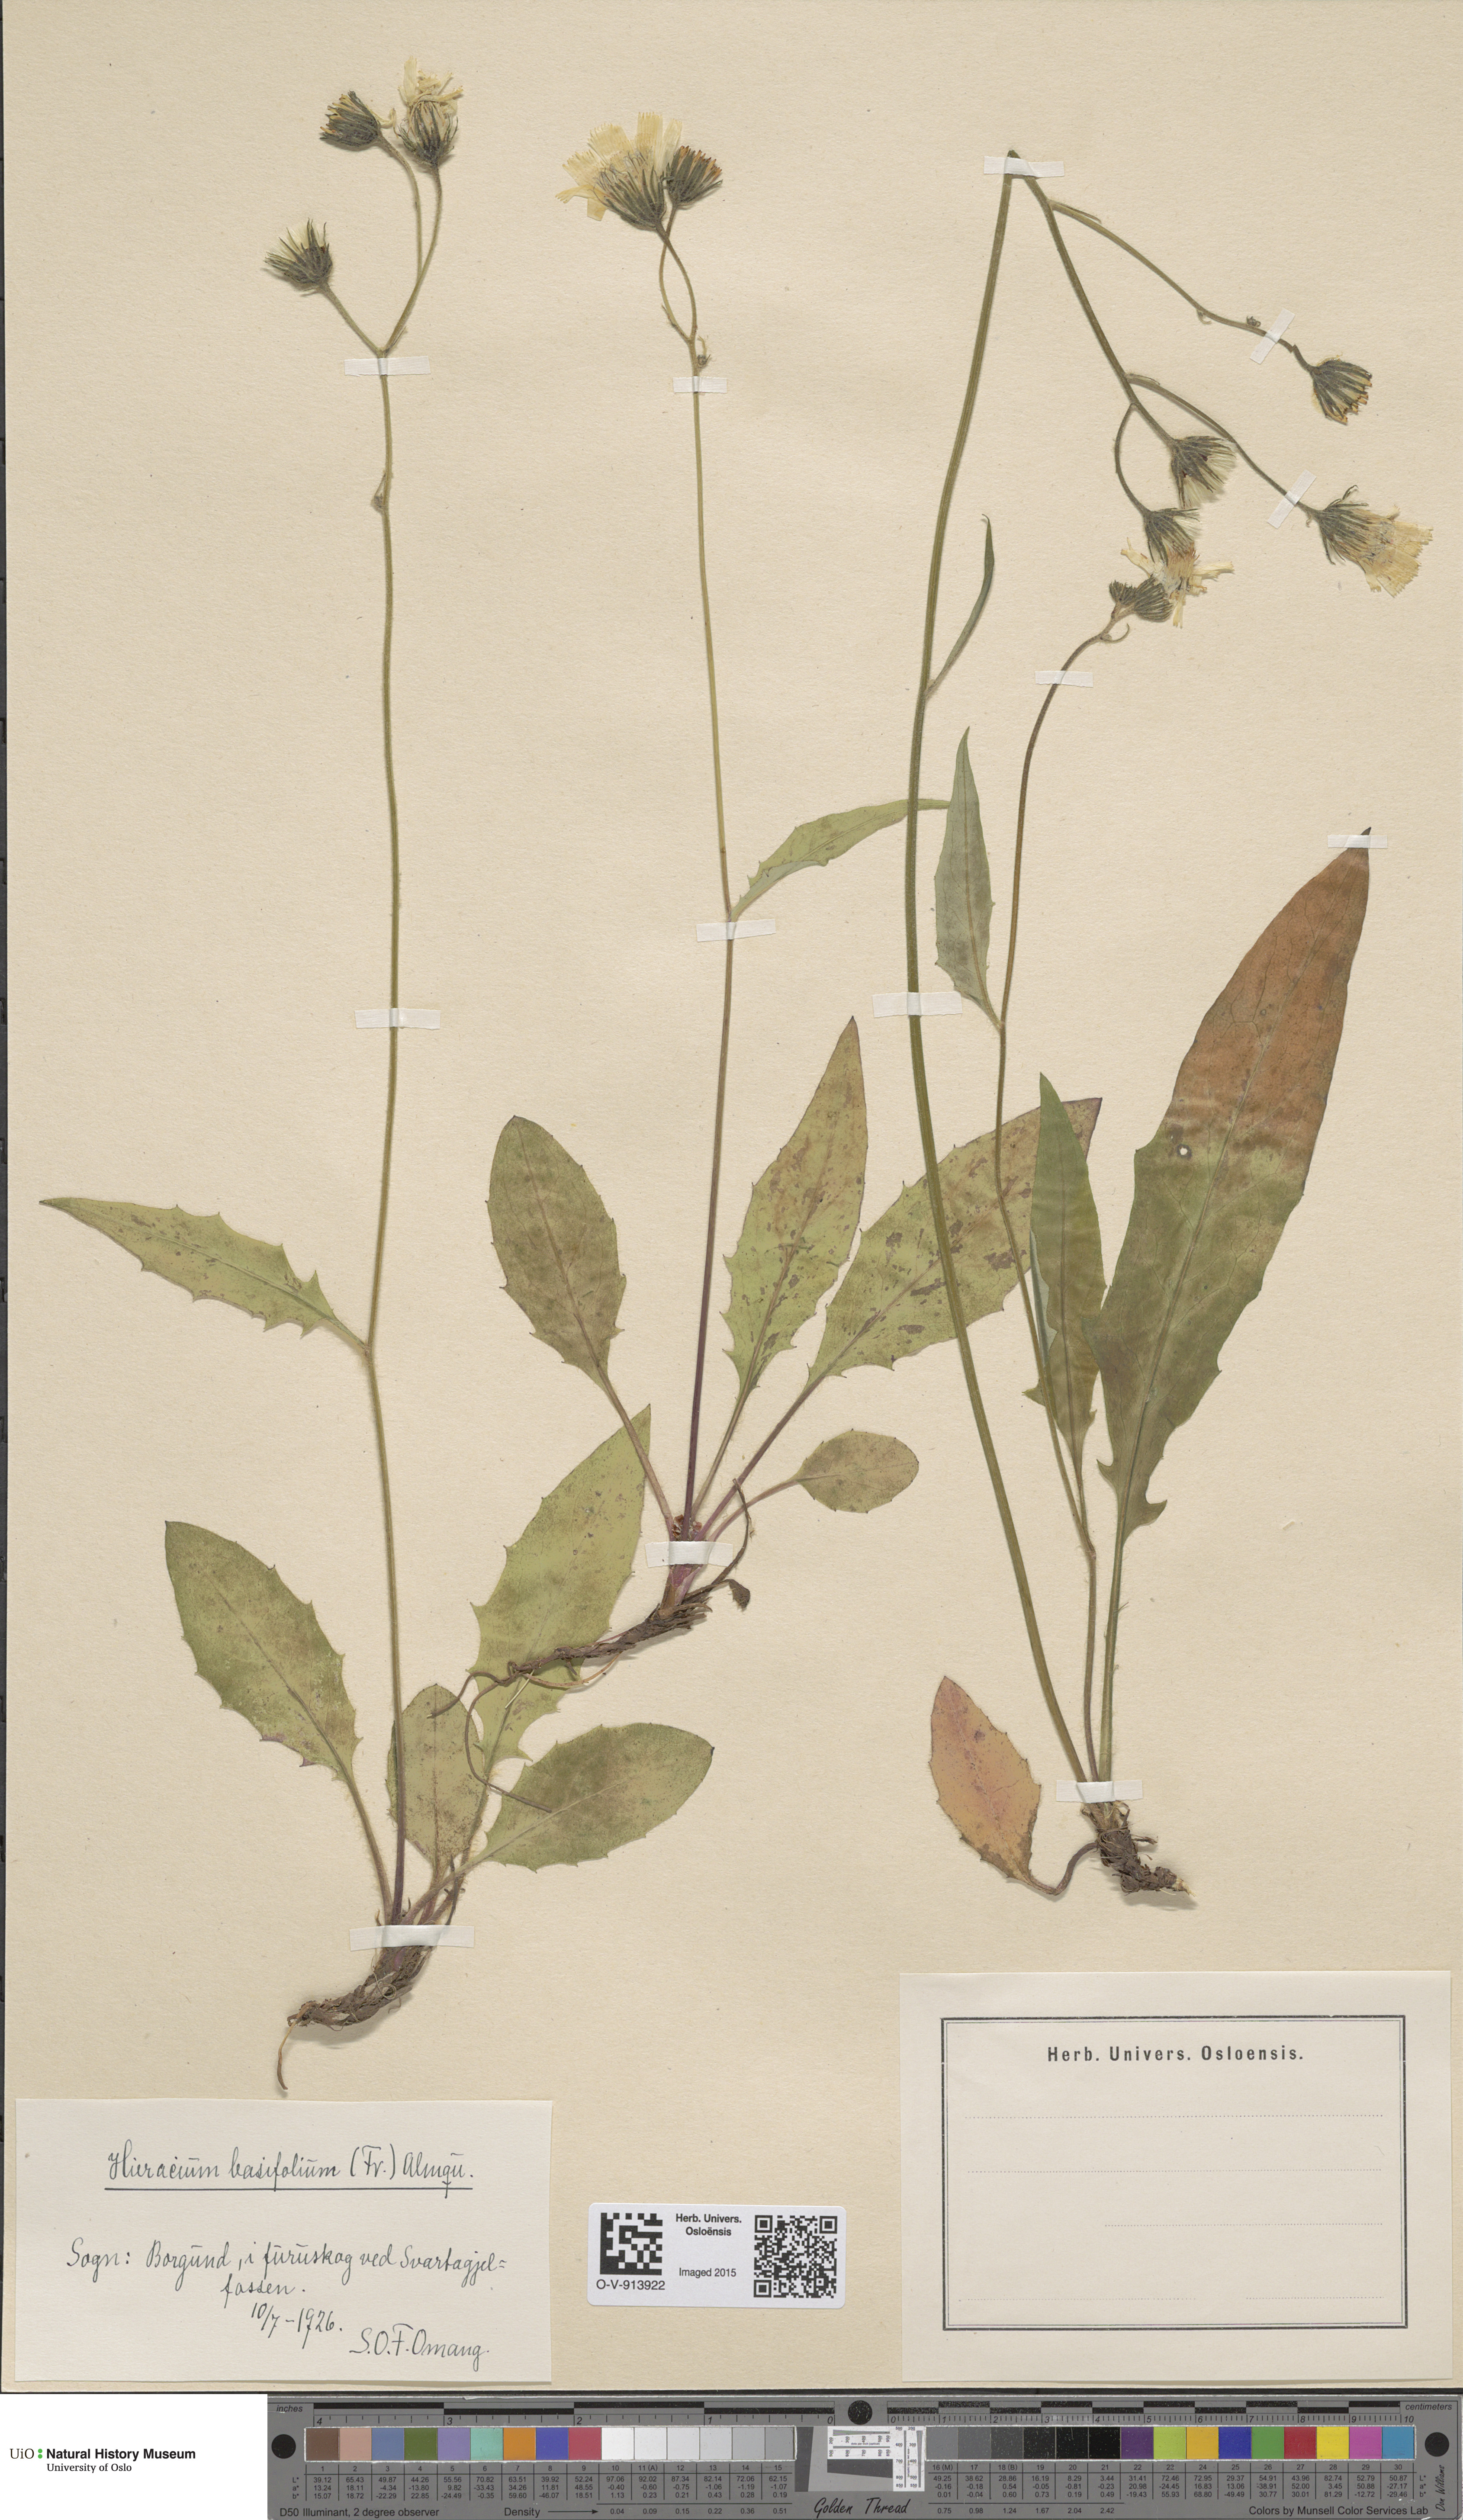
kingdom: Plantae
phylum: Tracheophyta
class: Magnoliopsida
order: Asterales
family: Asteraceae
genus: Hieracium
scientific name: Hieracium basifolium
